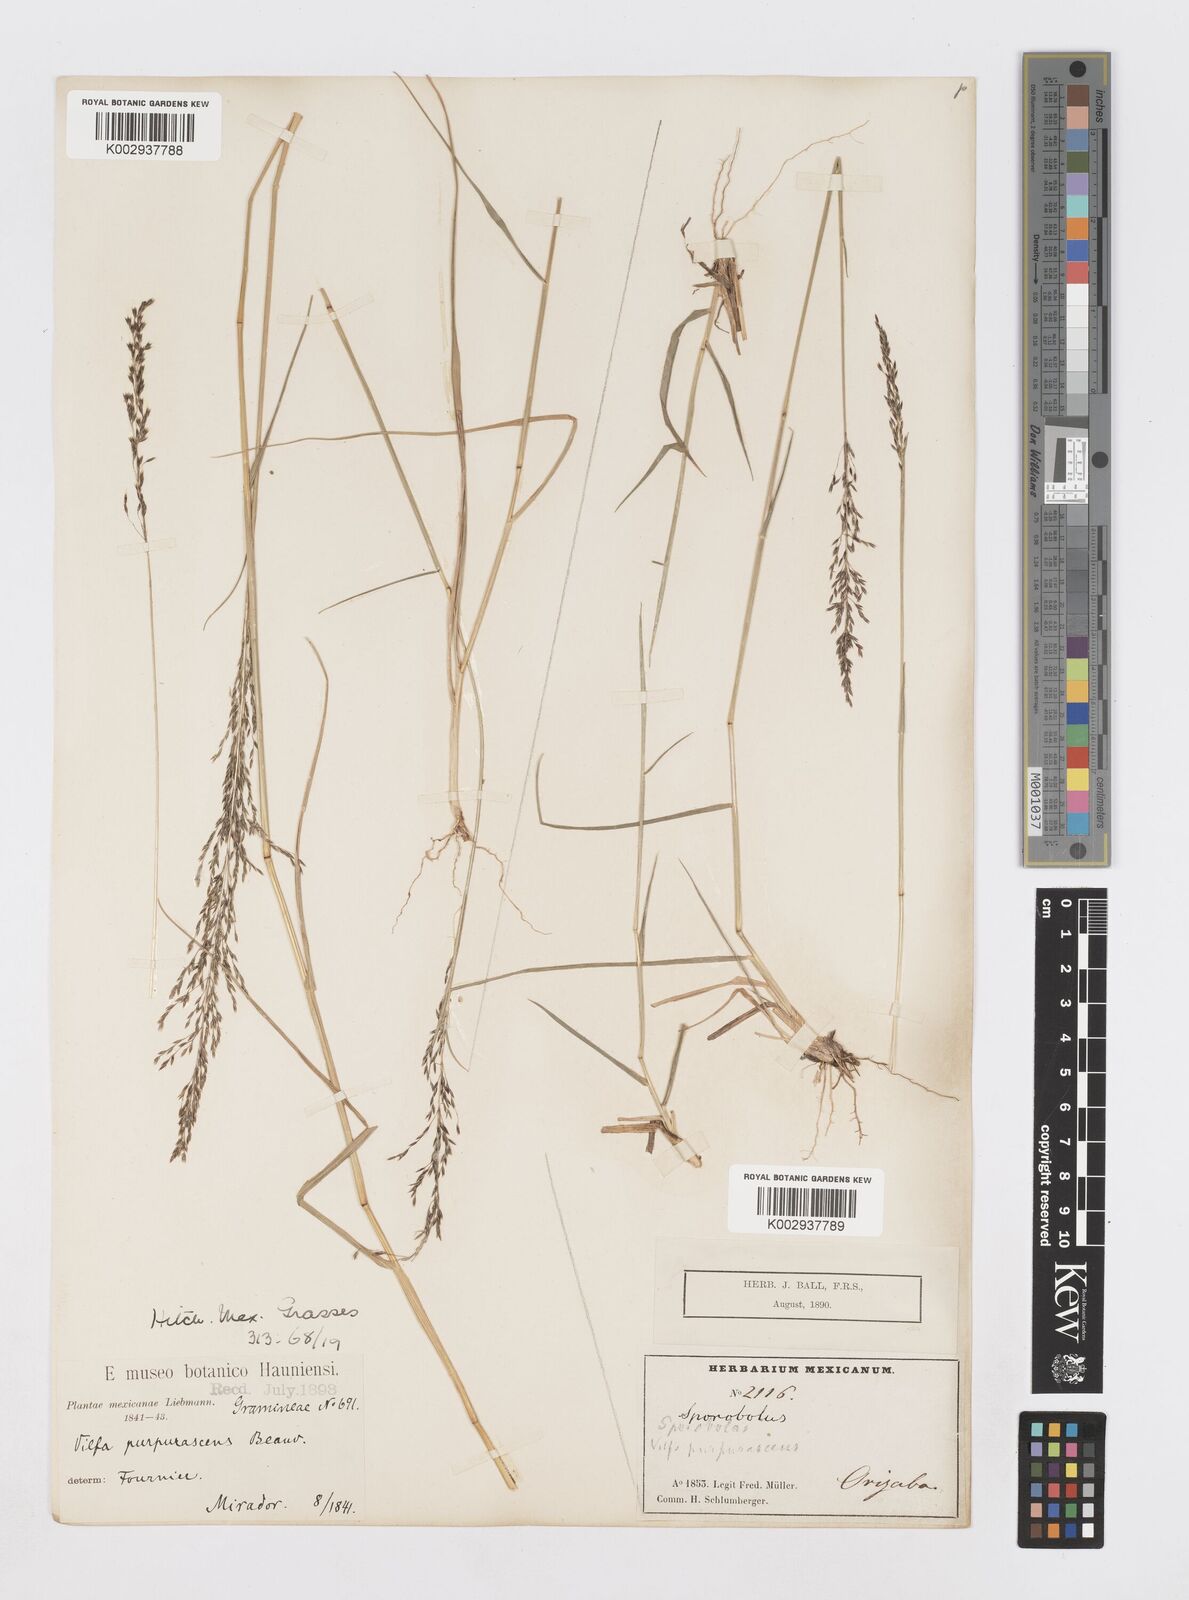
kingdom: Plantae
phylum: Tracheophyta
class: Liliopsida
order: Poales
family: Poaceae
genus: Sporobolus
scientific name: Sporobolus purpurascens
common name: Purple dropseed
